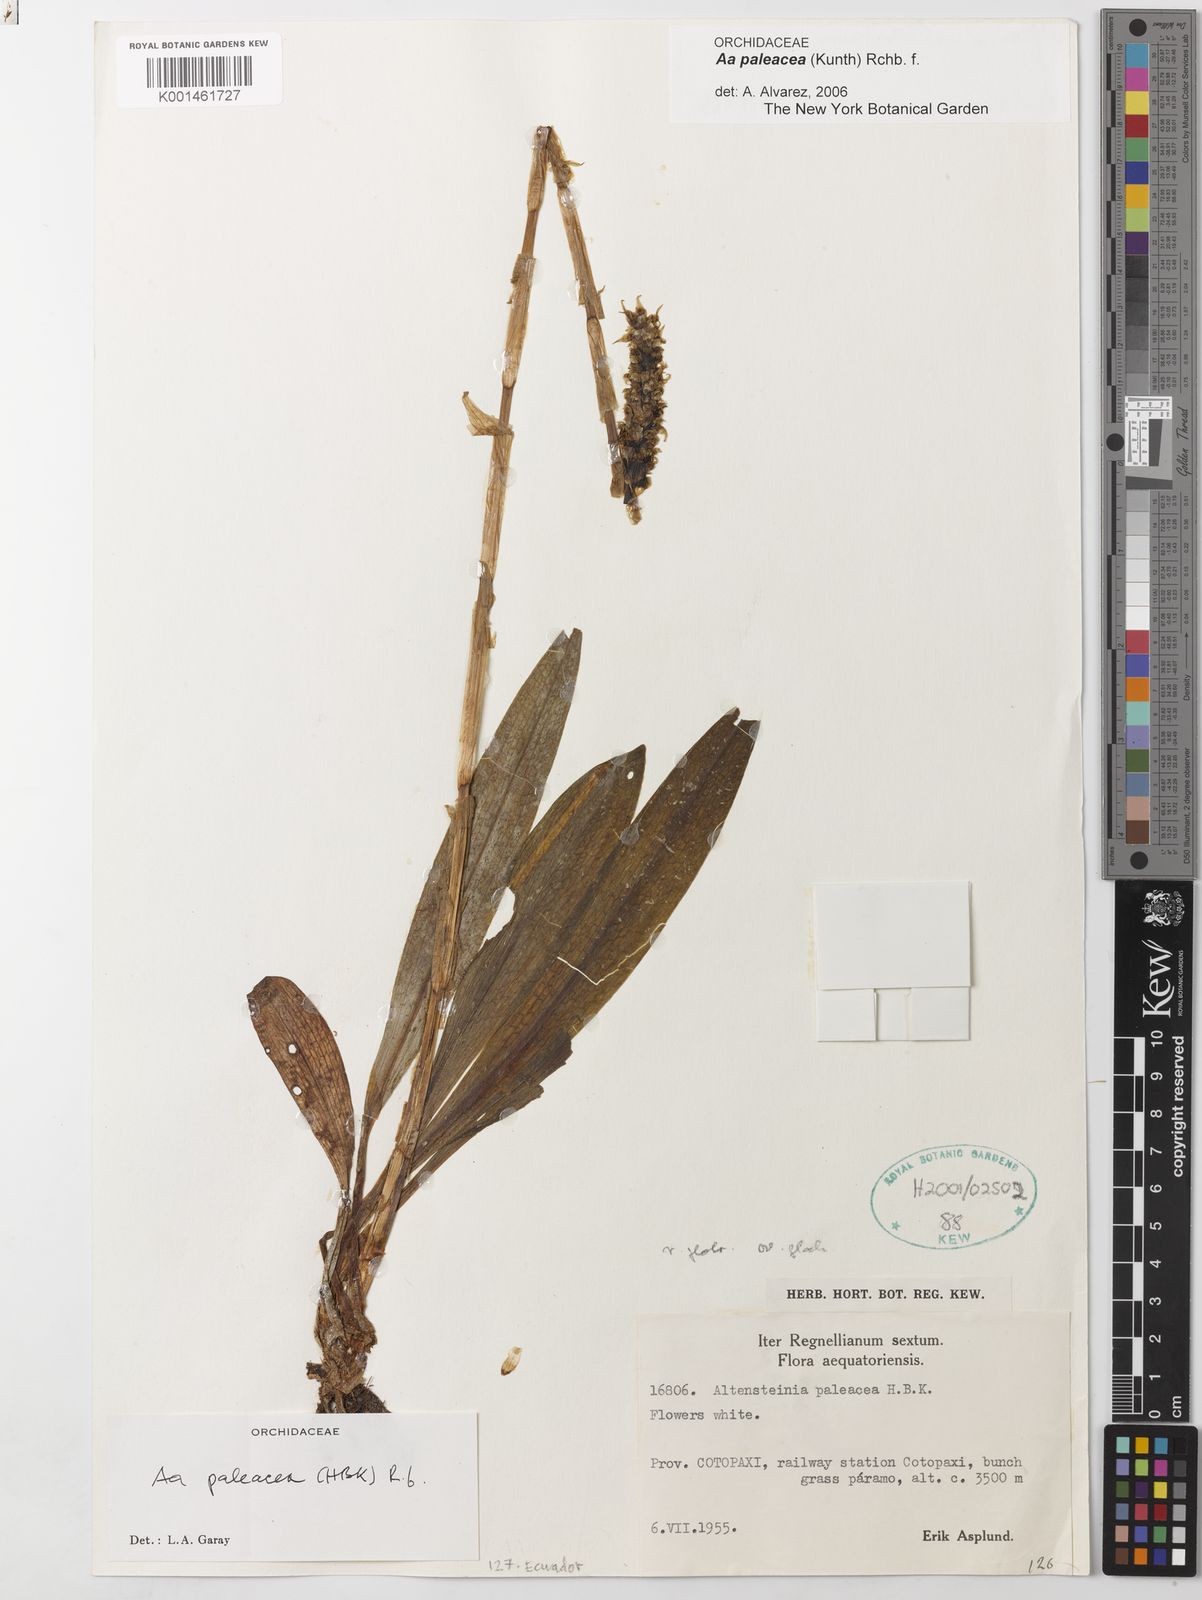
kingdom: Plantae
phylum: Tracheophyta
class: Liliopsida
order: Asparagales
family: Orchidaceae
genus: Aa
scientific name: Aa paleacea
